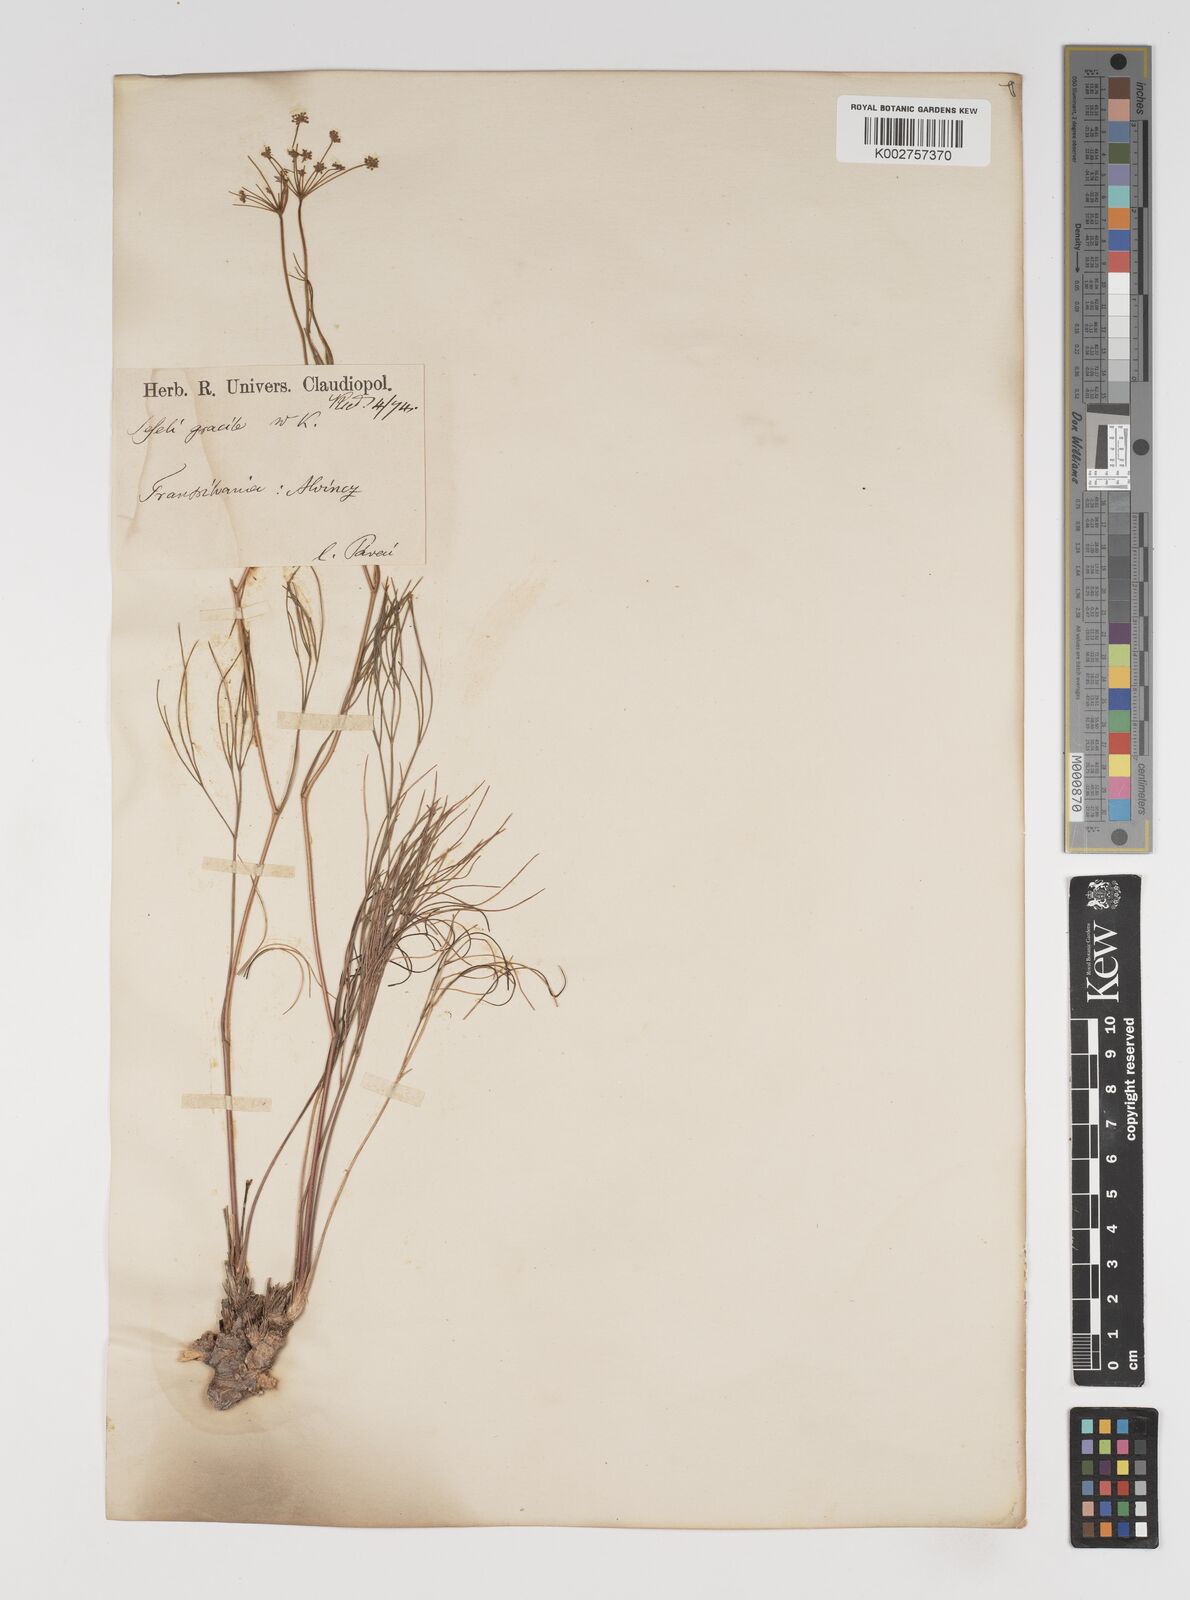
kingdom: Plantae
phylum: Tracheophyta
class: Magnoliopsida
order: Apiales
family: Apiaceae
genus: Seseli
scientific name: Seseli gracile
